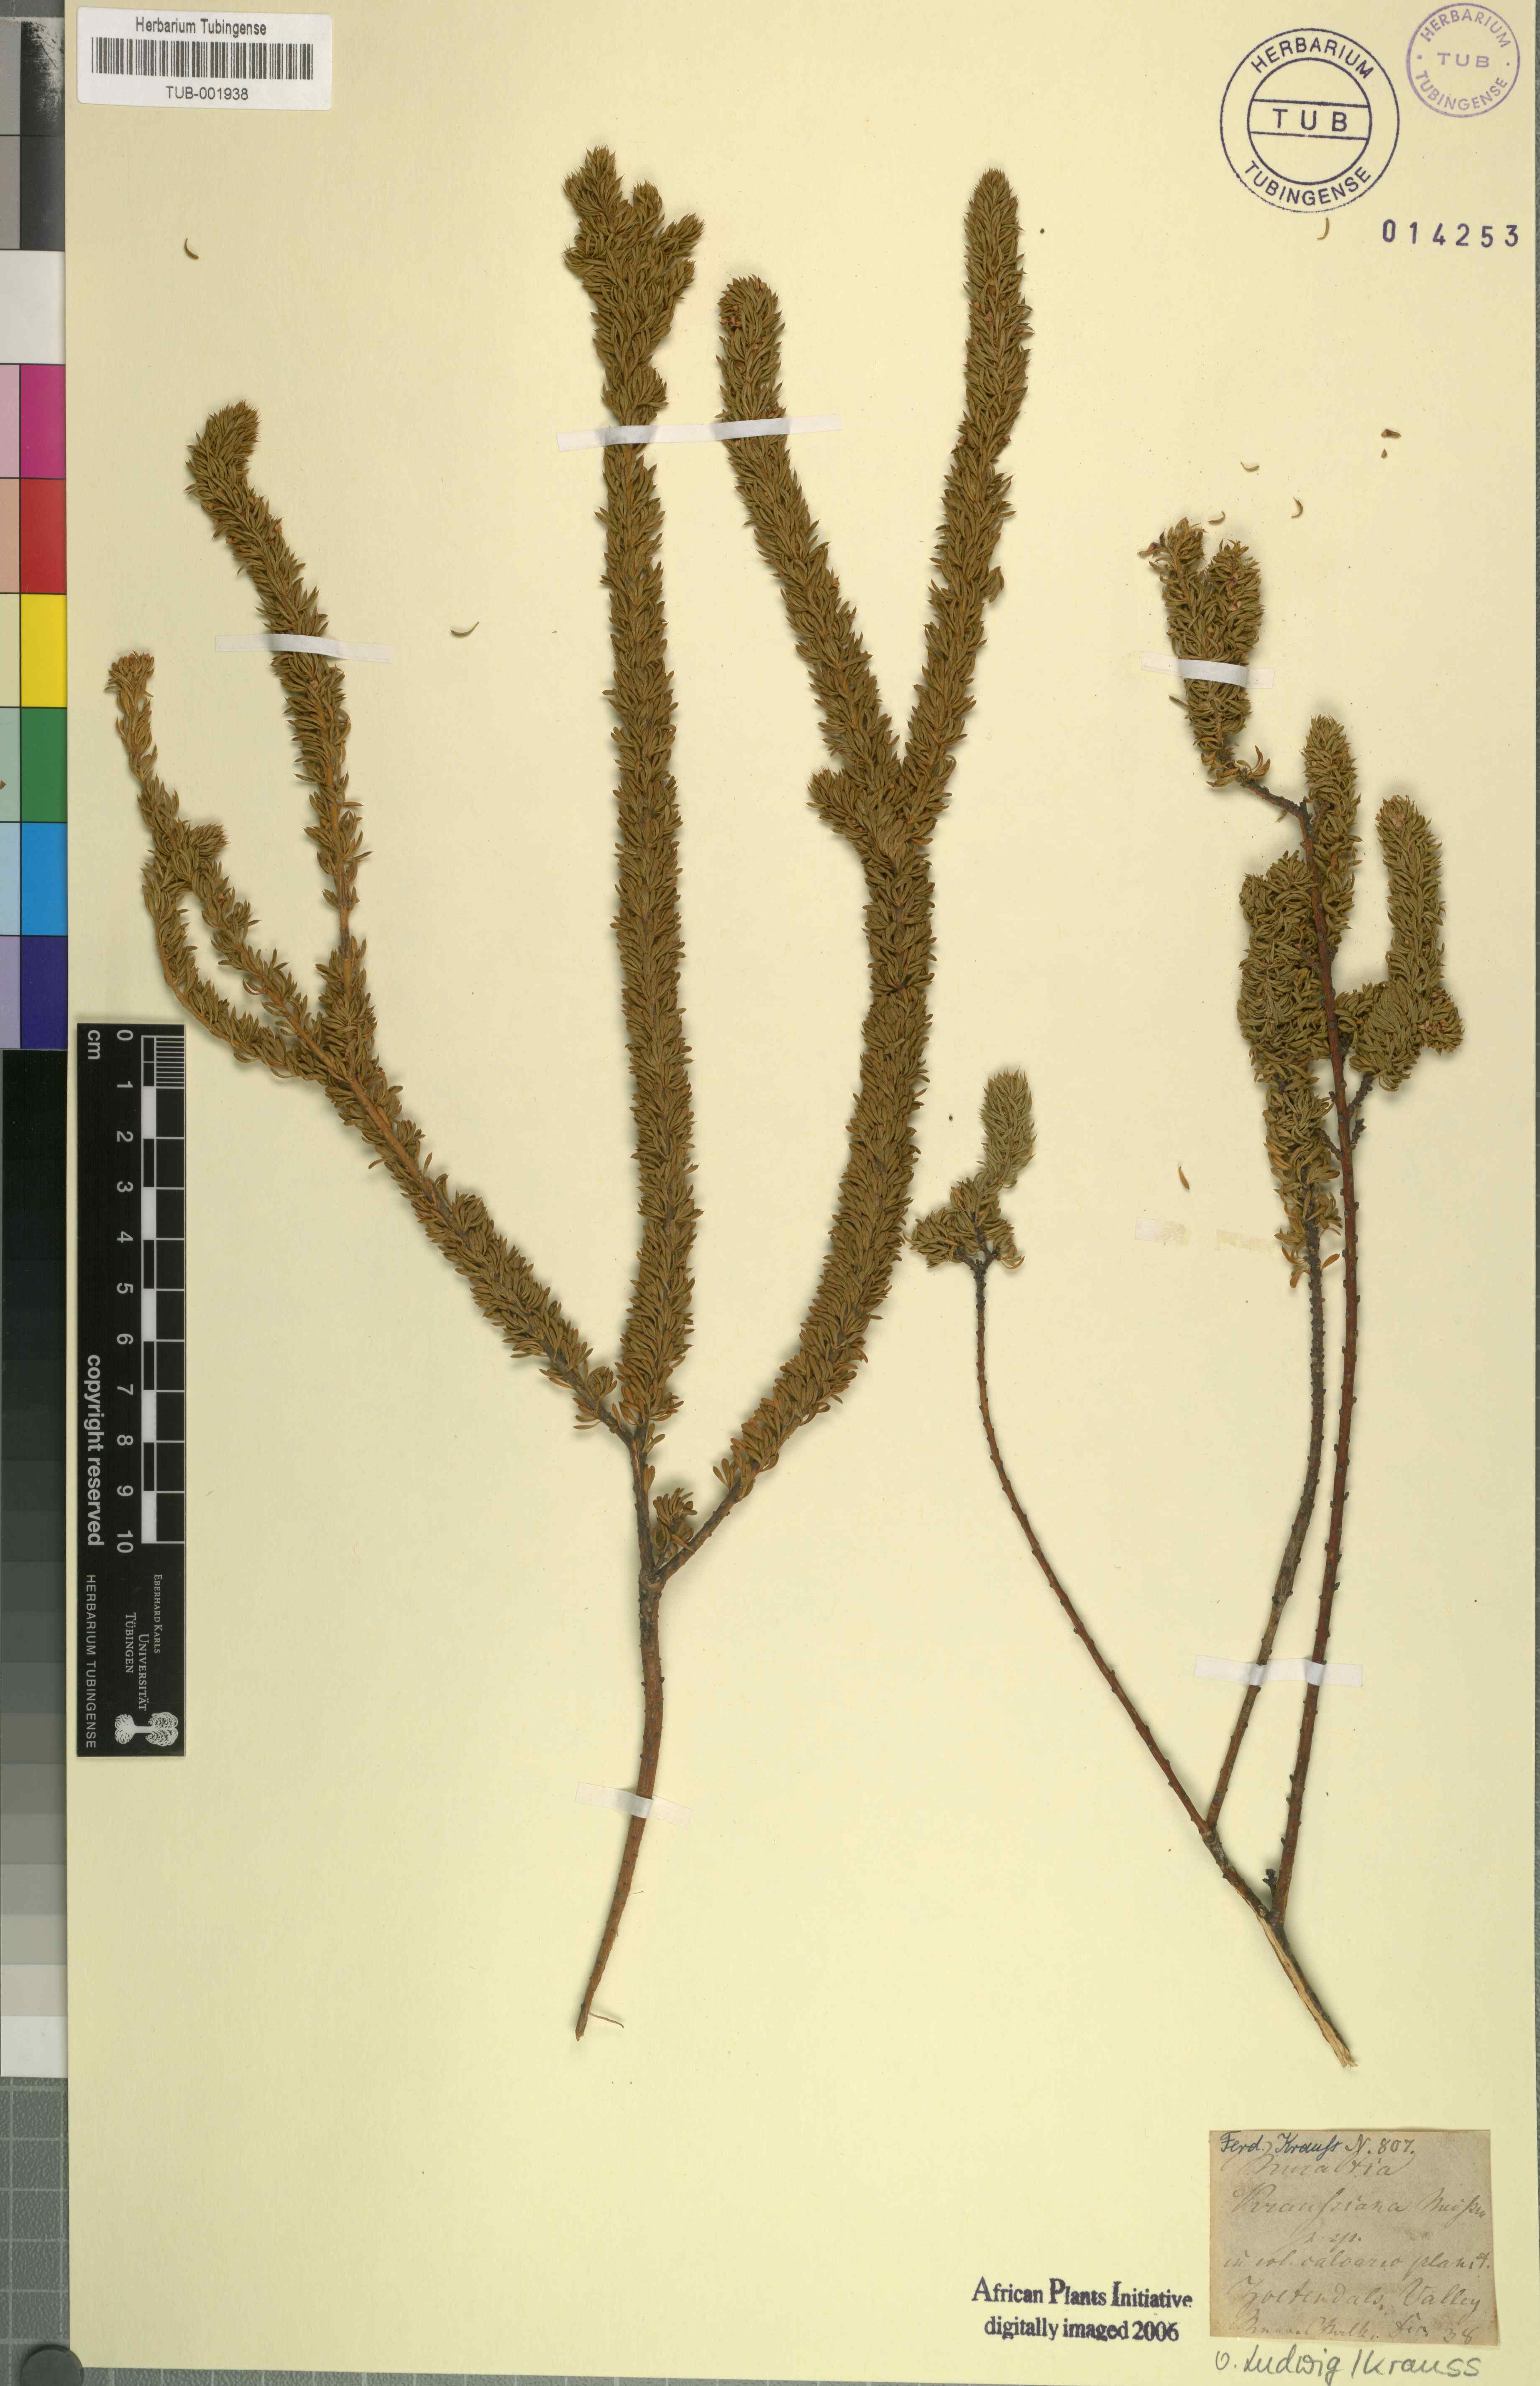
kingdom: Plantae
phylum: Tracheophyta
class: Magnoliopsida
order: Fabales
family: Polygalaceae
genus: Muraltia
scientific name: Muraltia mitior
